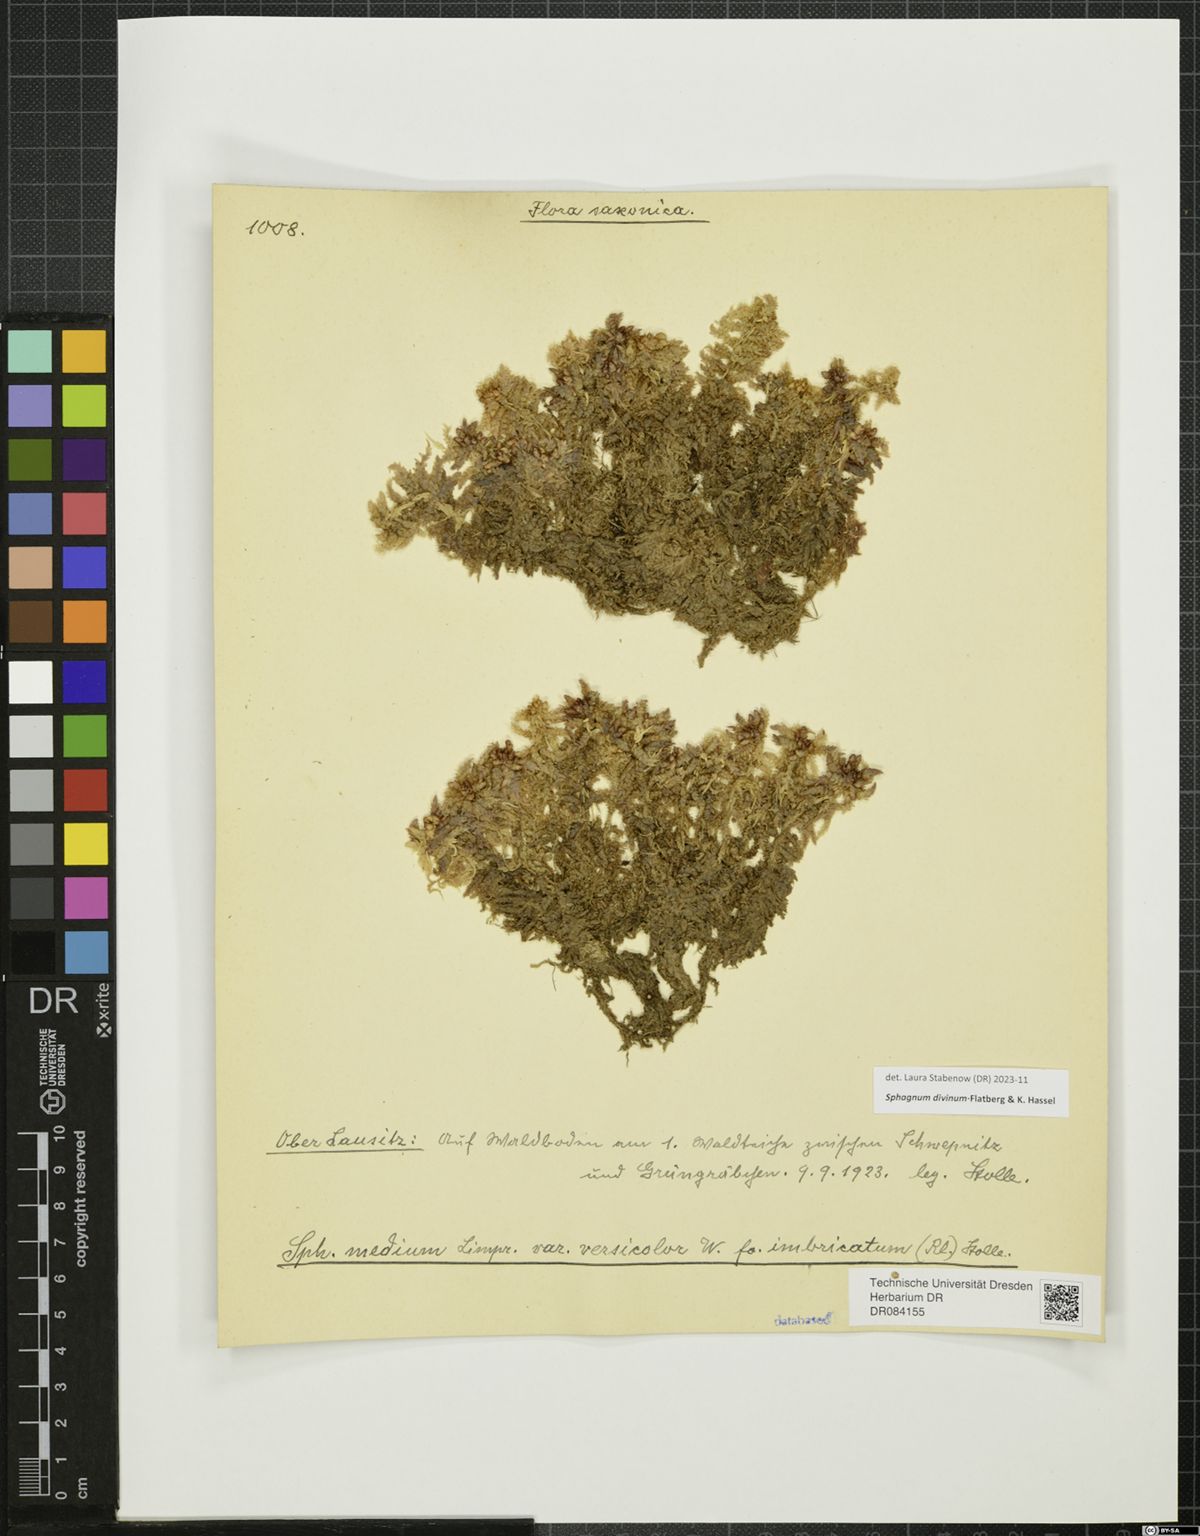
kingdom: Plantae
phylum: Bryophyta
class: Sphagnopsida
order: Sphagnales
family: Sphagnaceae
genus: Sphagnum
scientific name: Sphagnum divinum
